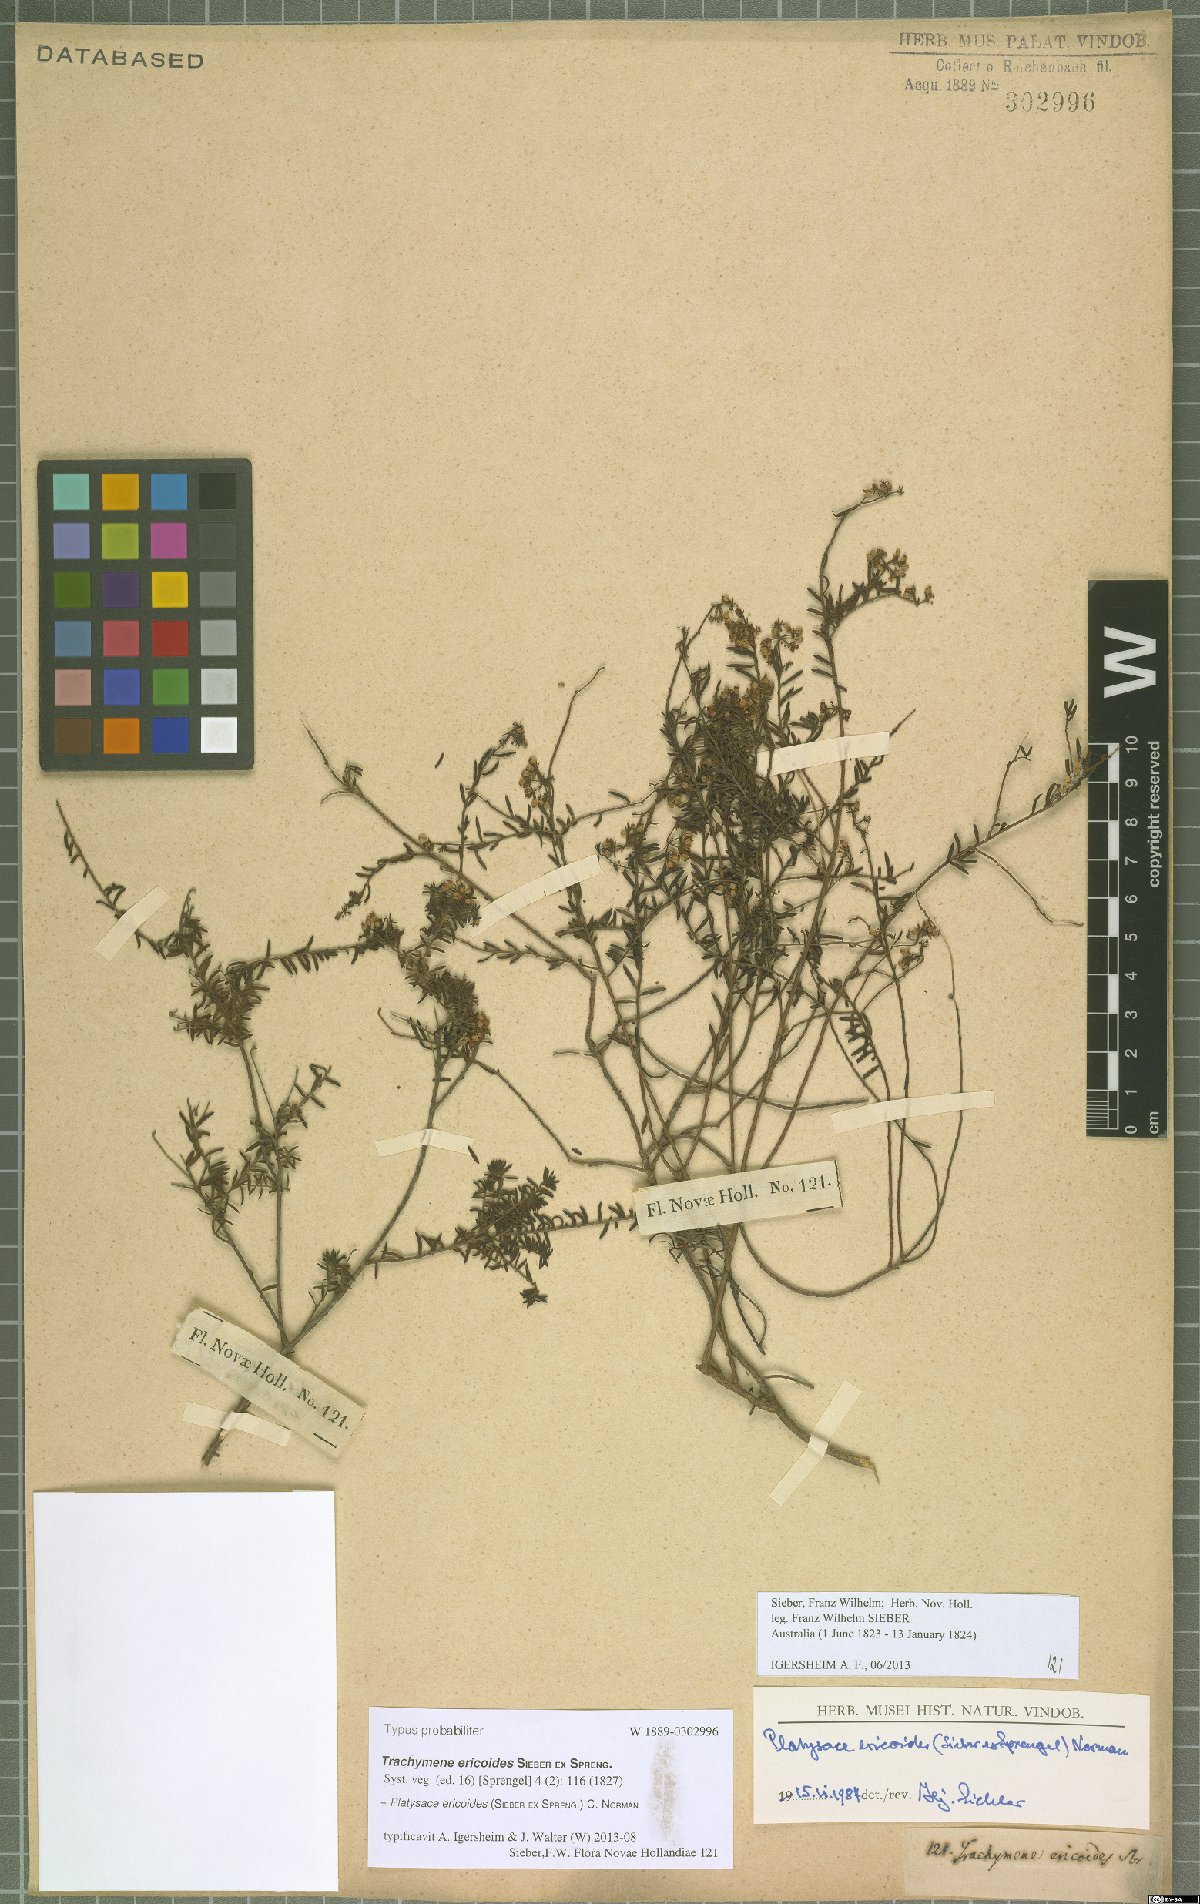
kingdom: Plantae
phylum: Tracheophyta
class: Magnoliopsida
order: Apiales
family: Apiaceae
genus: Platysace
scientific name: Platysace ericoides
